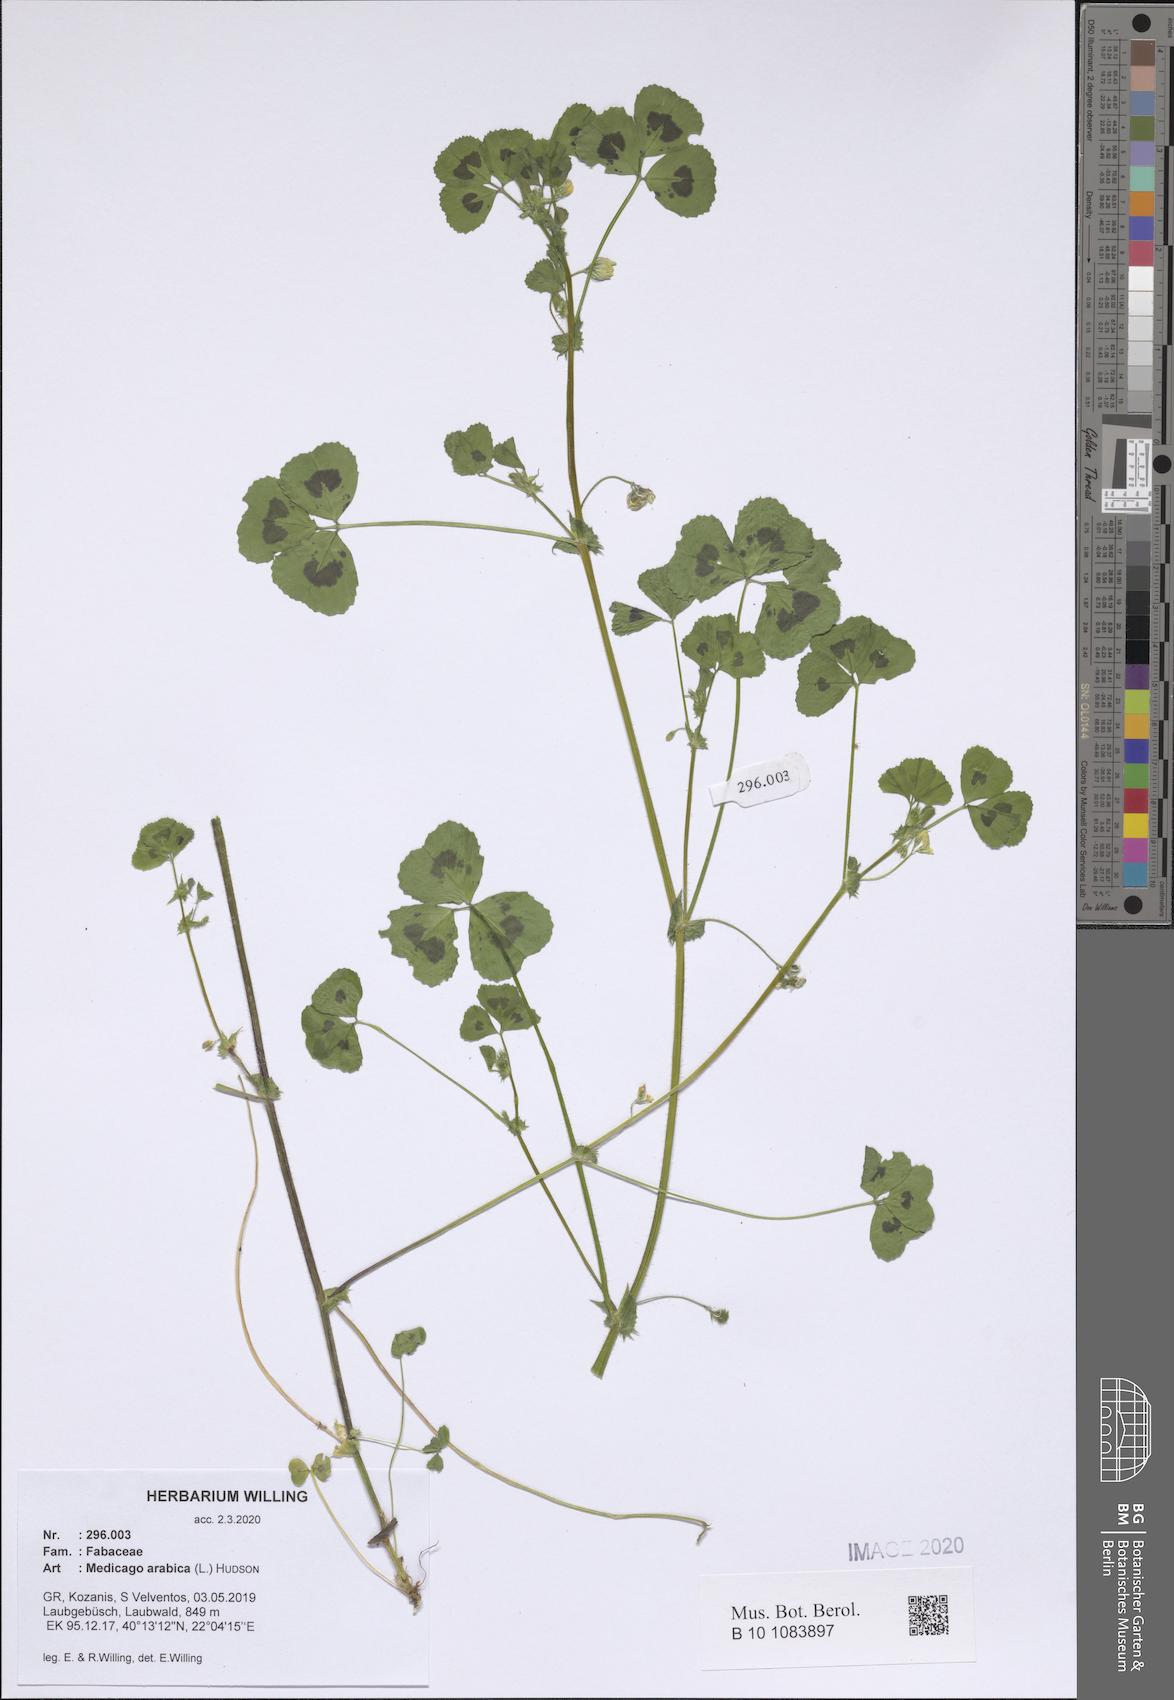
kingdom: Plantae
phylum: Tracheophyta
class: Magnoliopsida
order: Fabales
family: Fabaceae
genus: Medicago
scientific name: Medicago arabica
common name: Spotted medick
